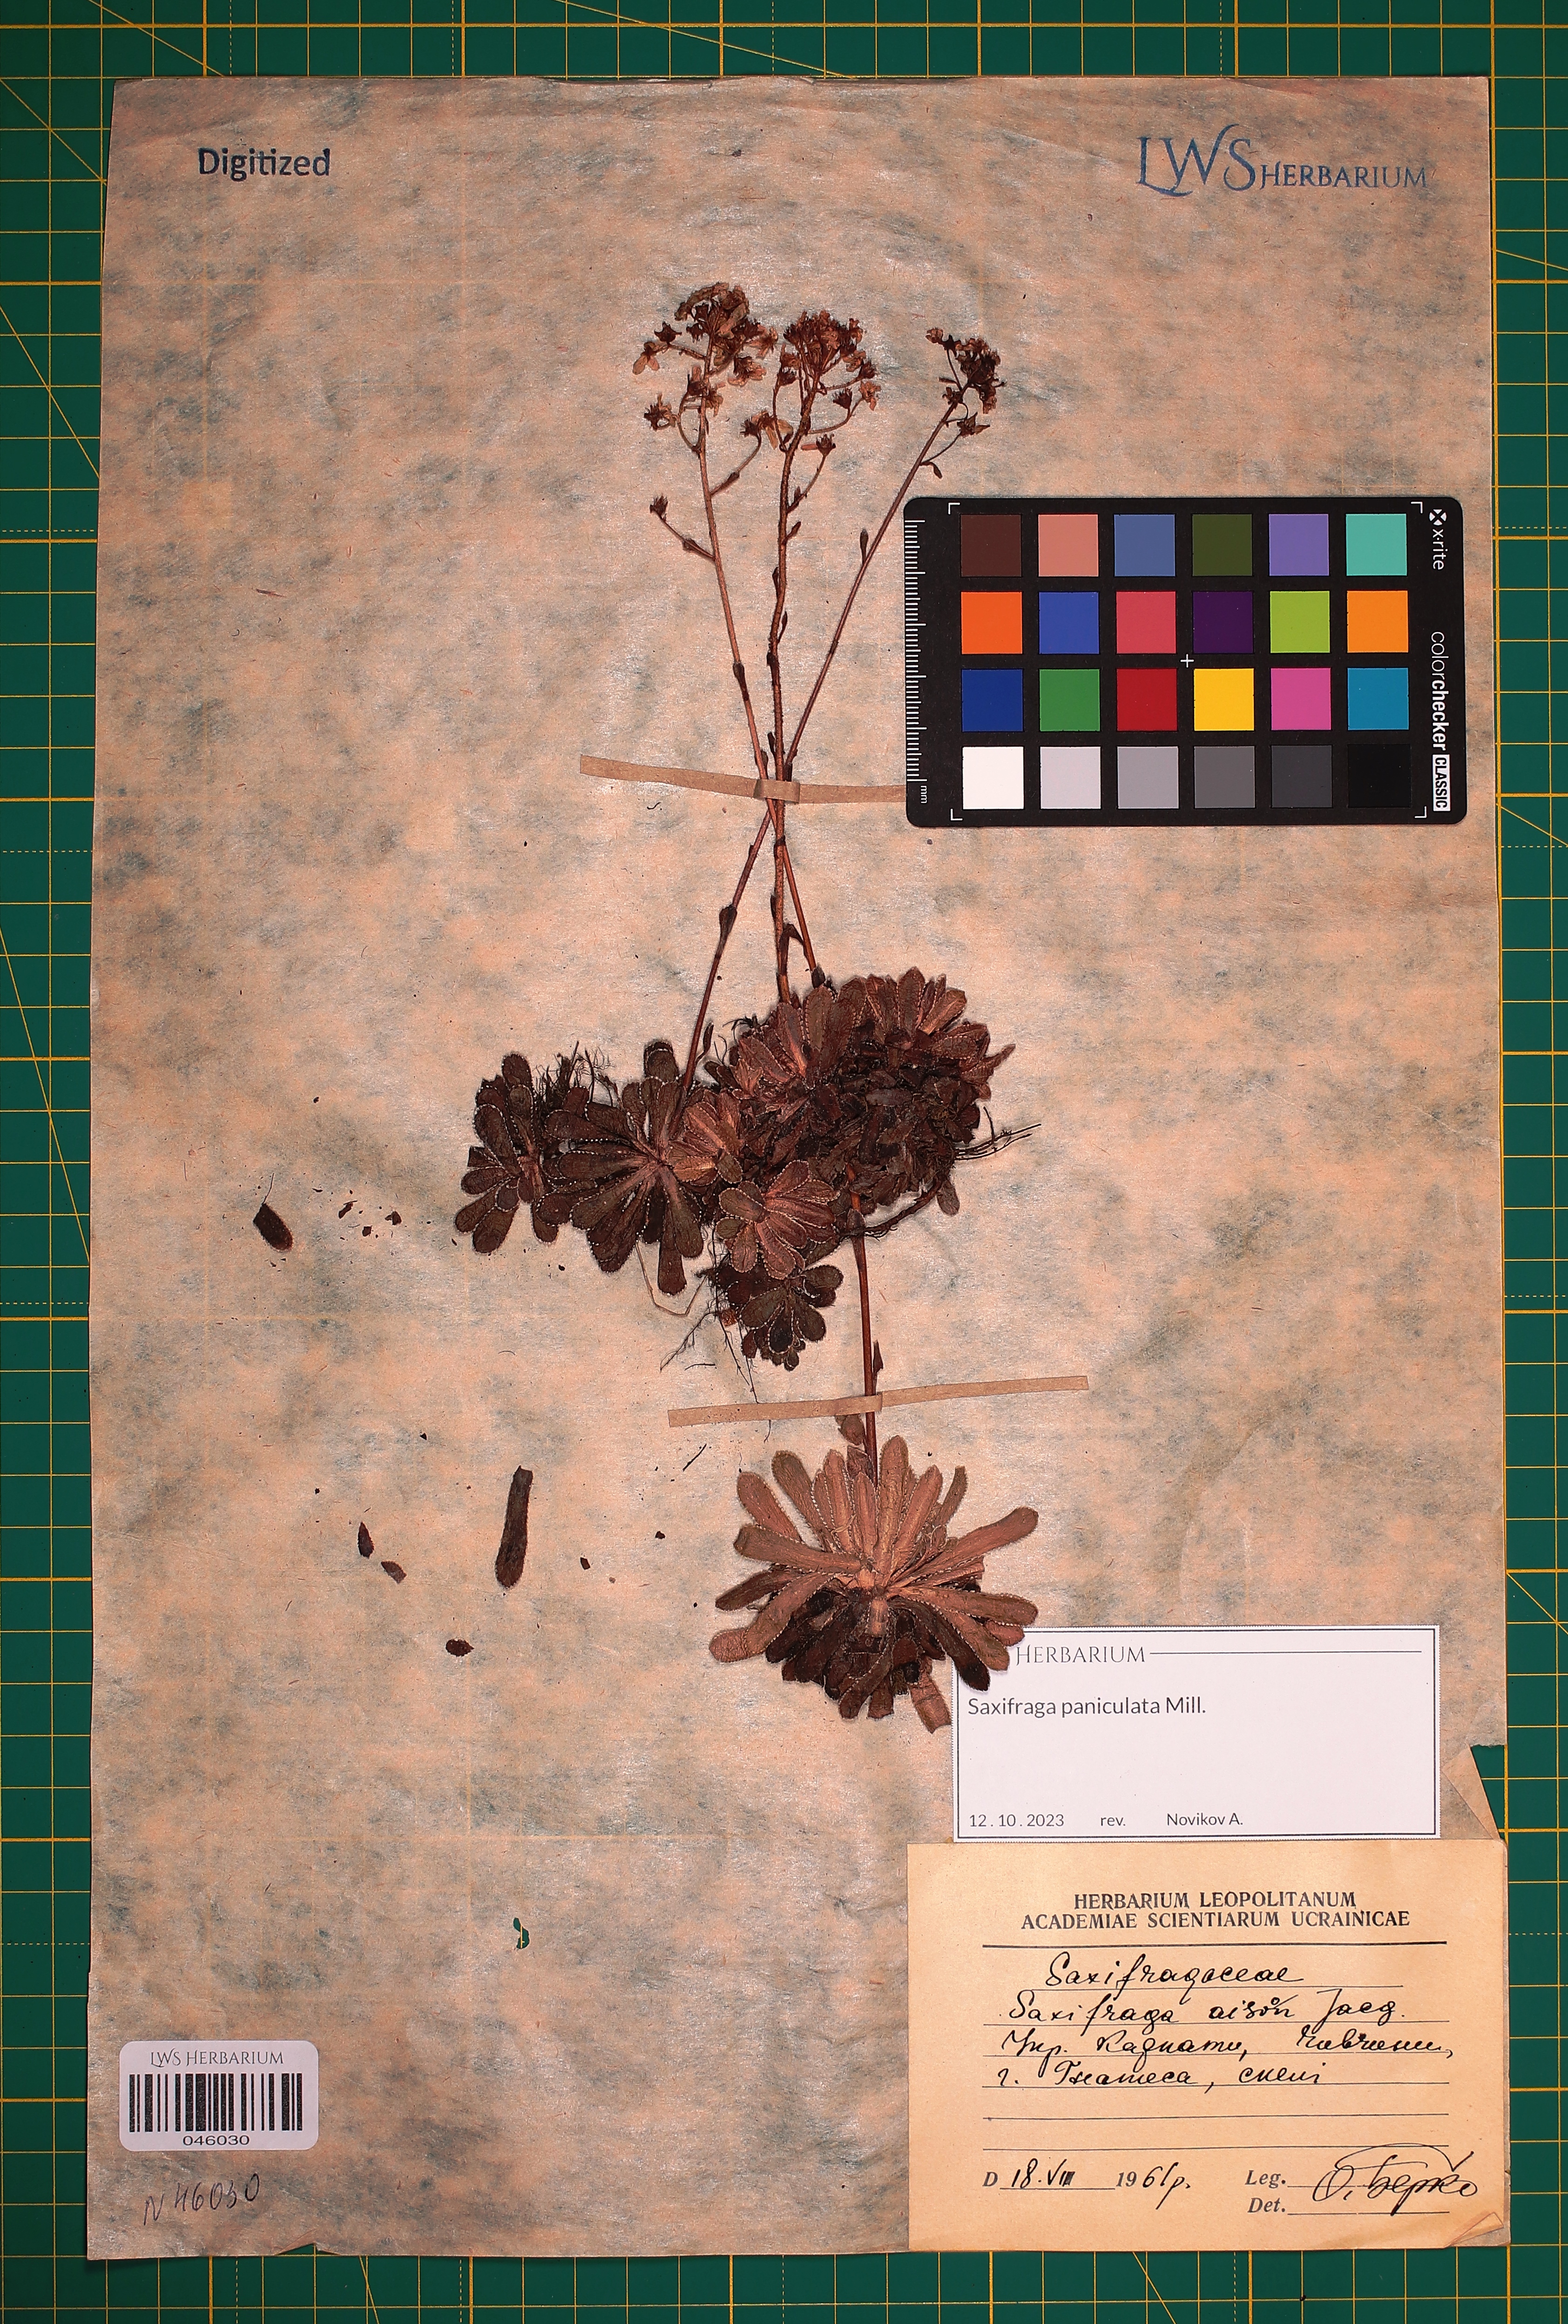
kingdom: Plantae
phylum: Tracheophyta
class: Magnoliopsida
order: Saxifragales
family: Saxifragaceae
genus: Saxifraga
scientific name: Saxifraga paniculata
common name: Livelong saxifrage
